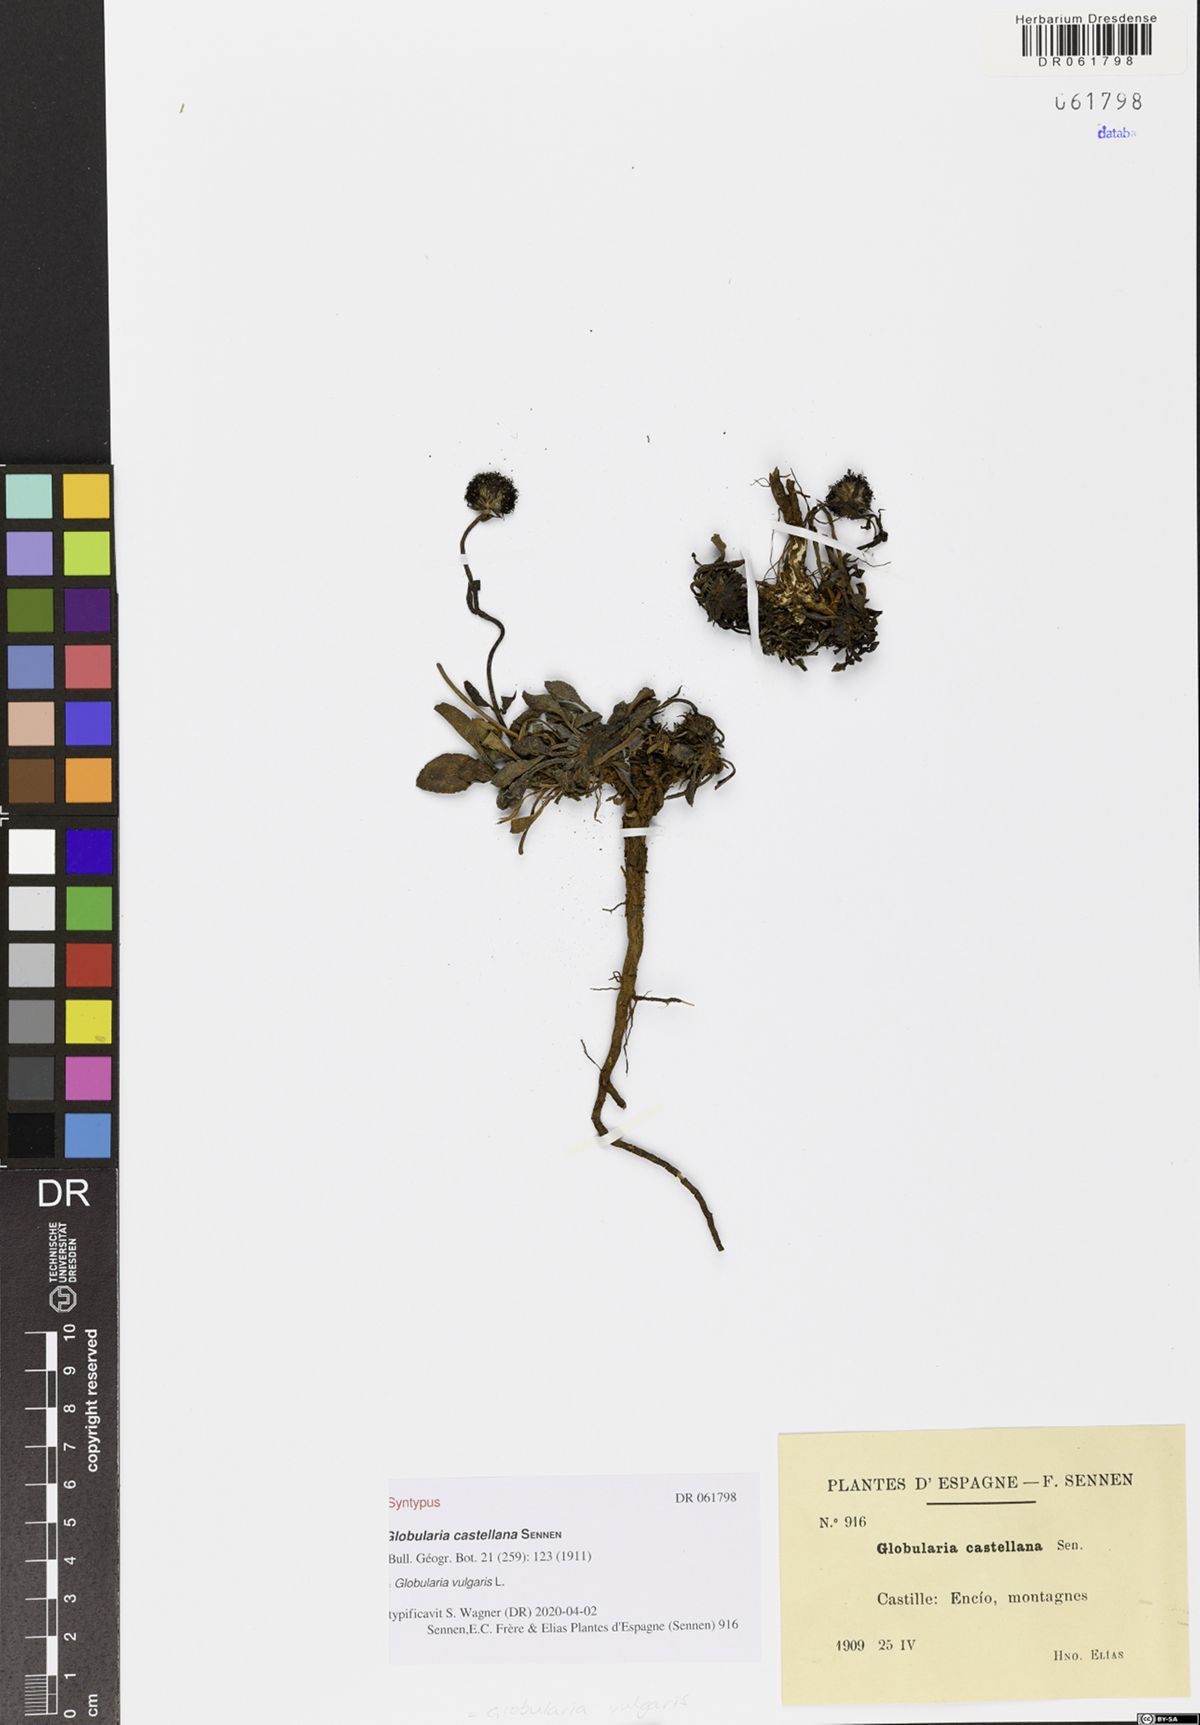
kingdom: Plantae
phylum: Tracheophyta
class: Magnoliopsida
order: Lamiales
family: Plantaginaceae
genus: Globularia
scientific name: Globularia vulgaris
